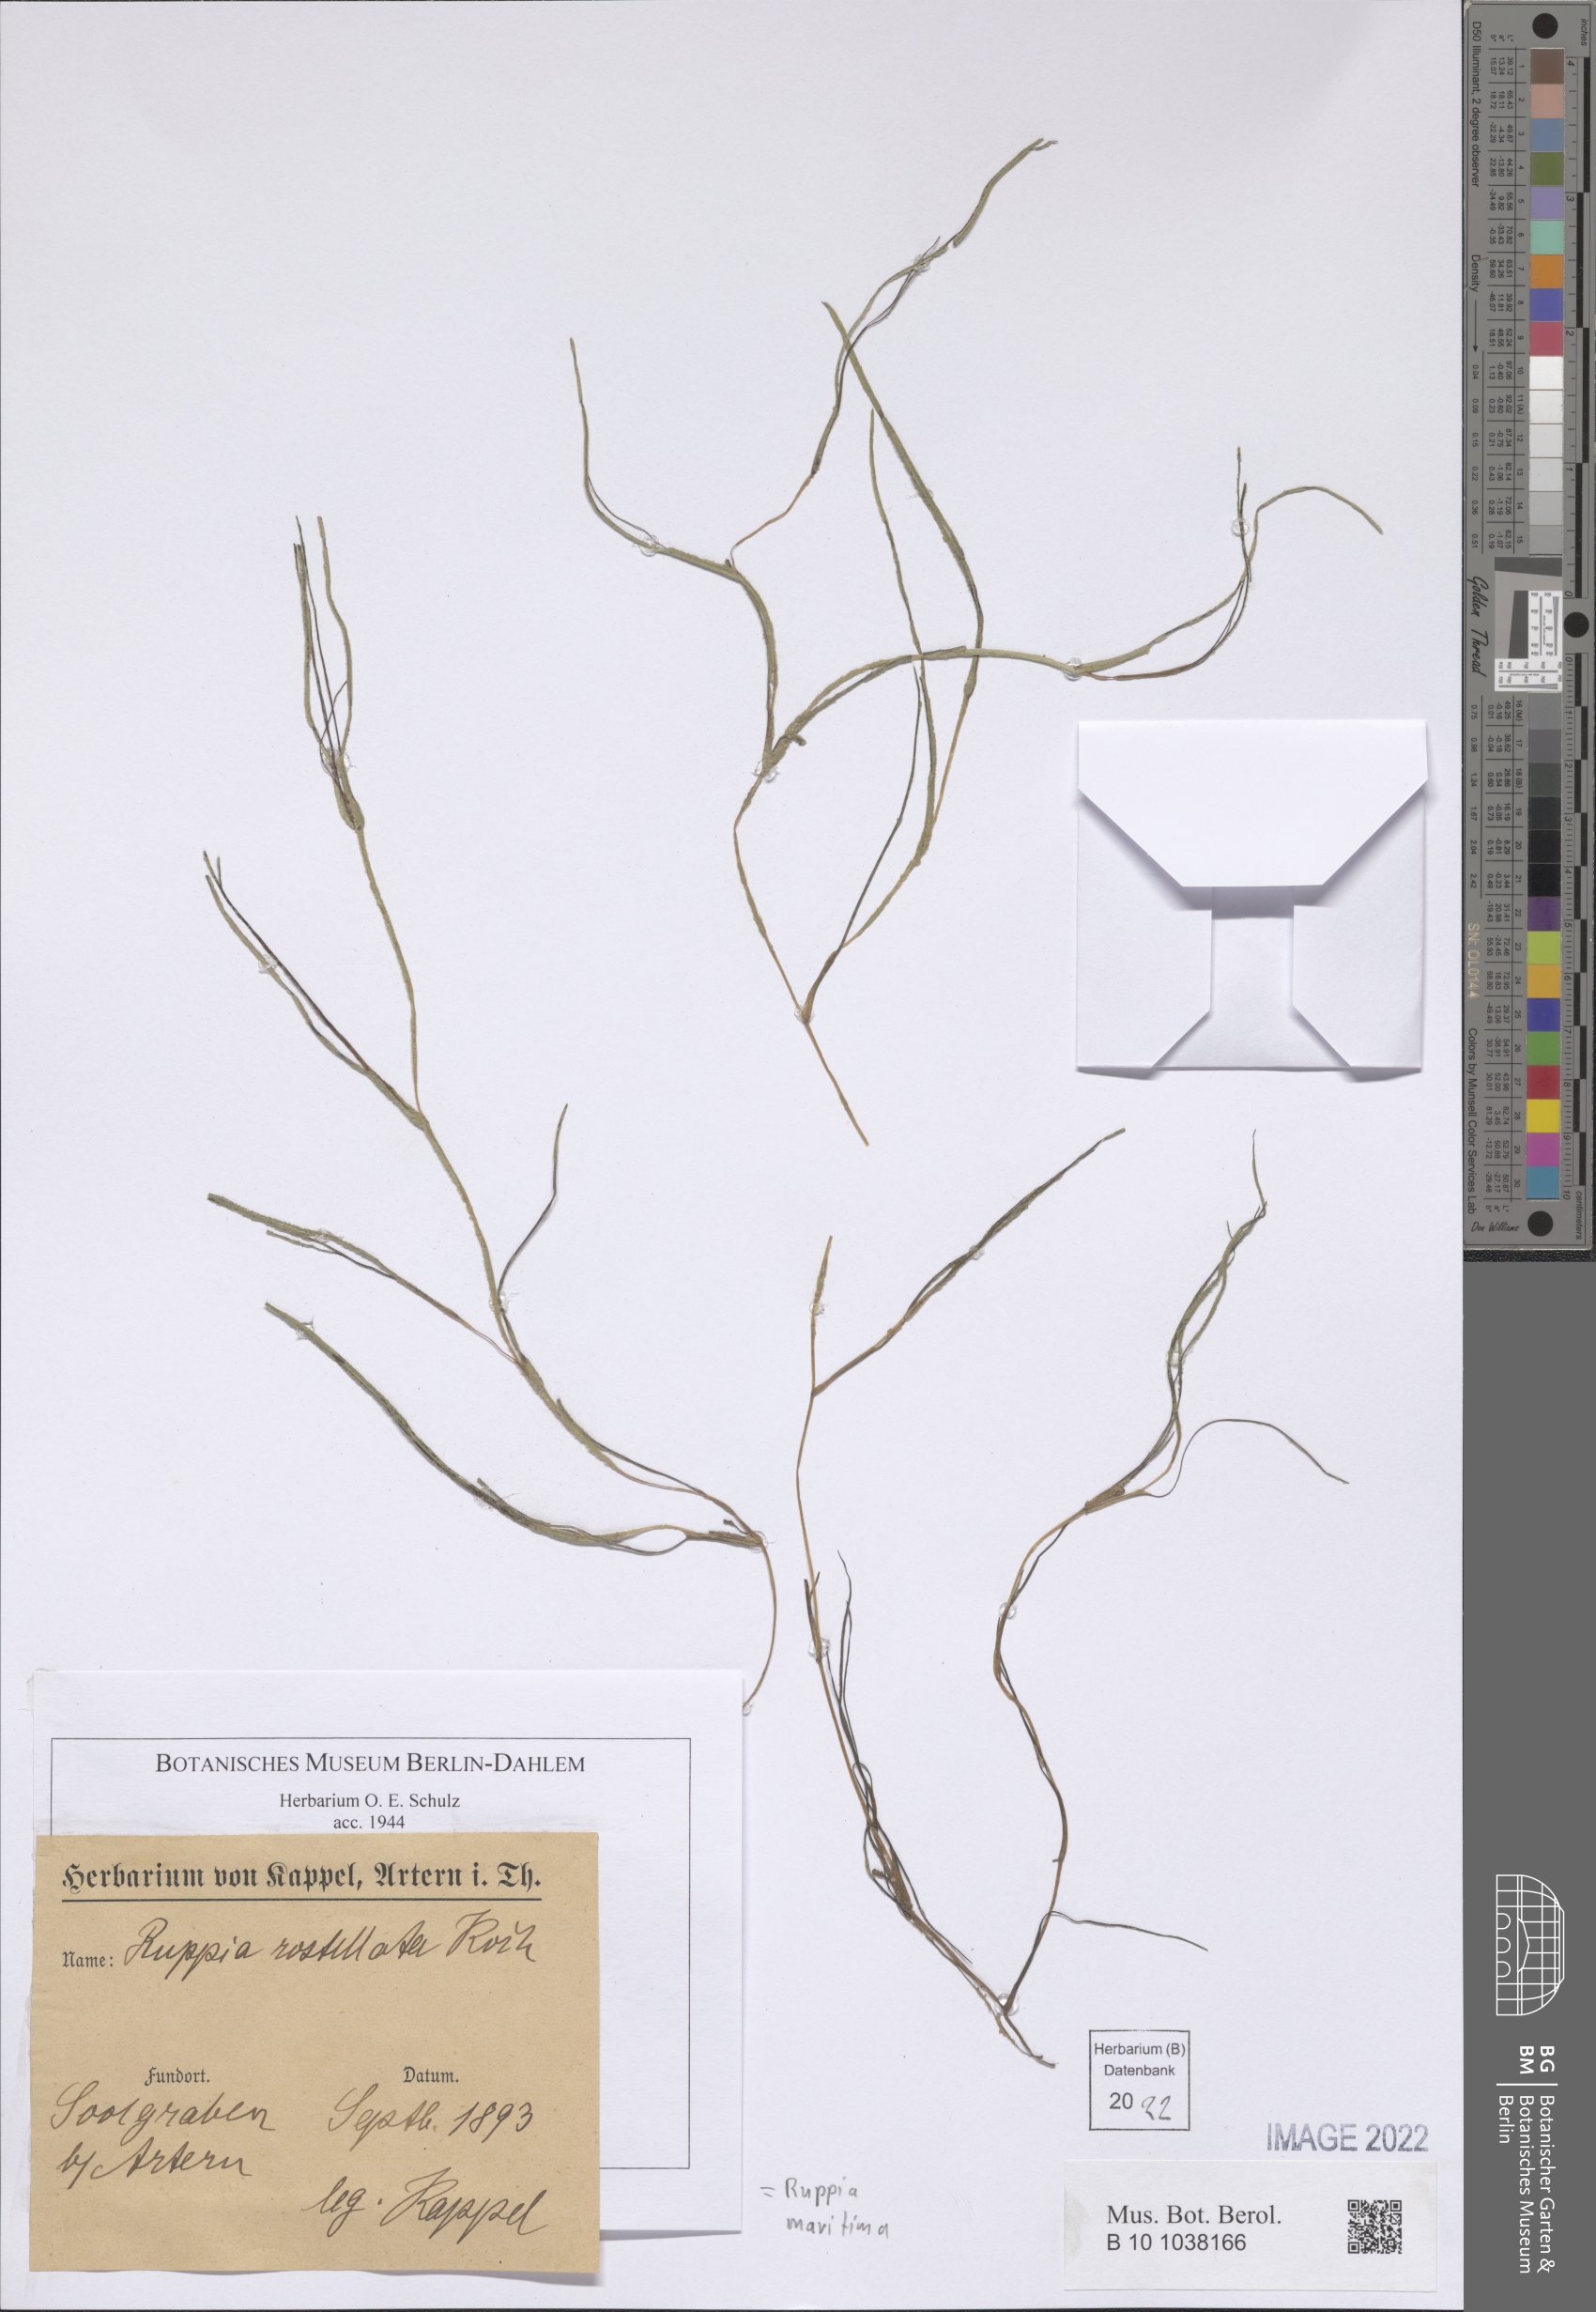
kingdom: Plantae
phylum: Tracheophyta
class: Liliopsida
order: Alismatales
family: Ruppiaceae
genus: Ruppia
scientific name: Ruppia maritima
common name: Beaked tasselweed
